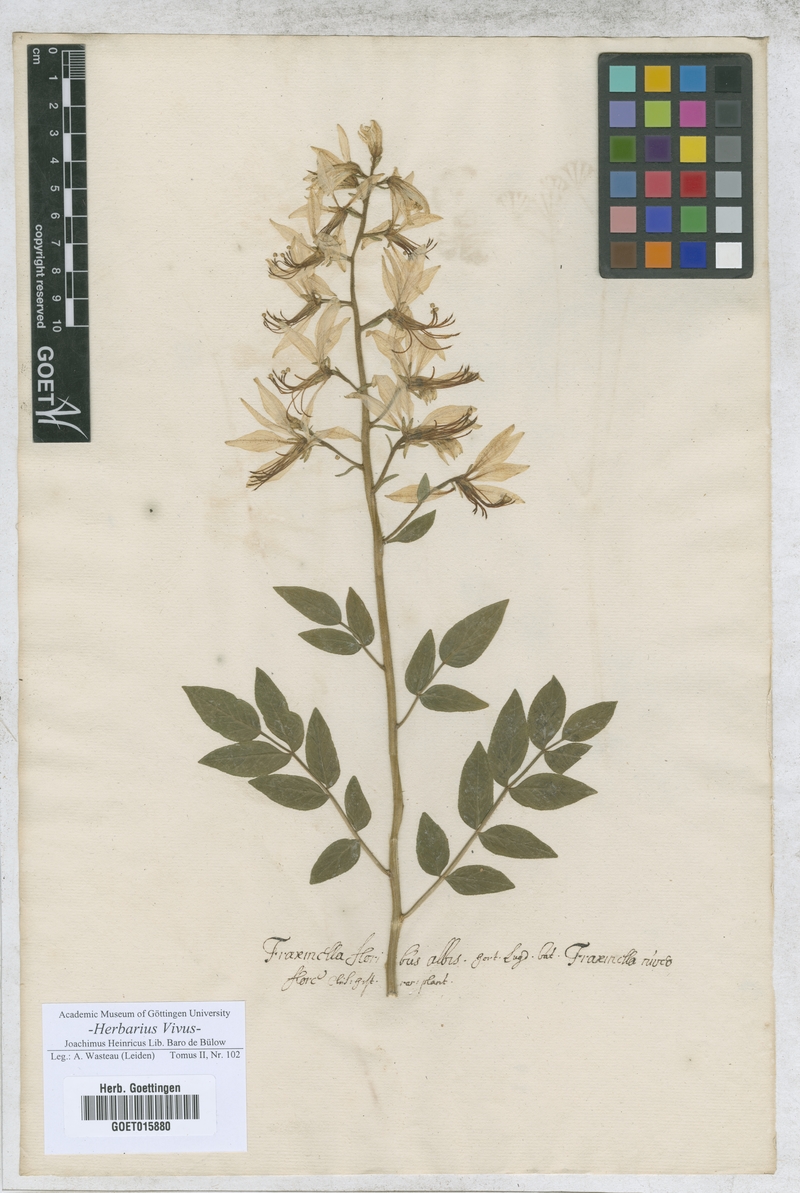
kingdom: Plantae
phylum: Tracheophyta
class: Magnoliopsida
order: Sapindales
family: Rutaceae
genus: Dictamnus
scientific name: Dictamnus albus
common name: Gasplant
